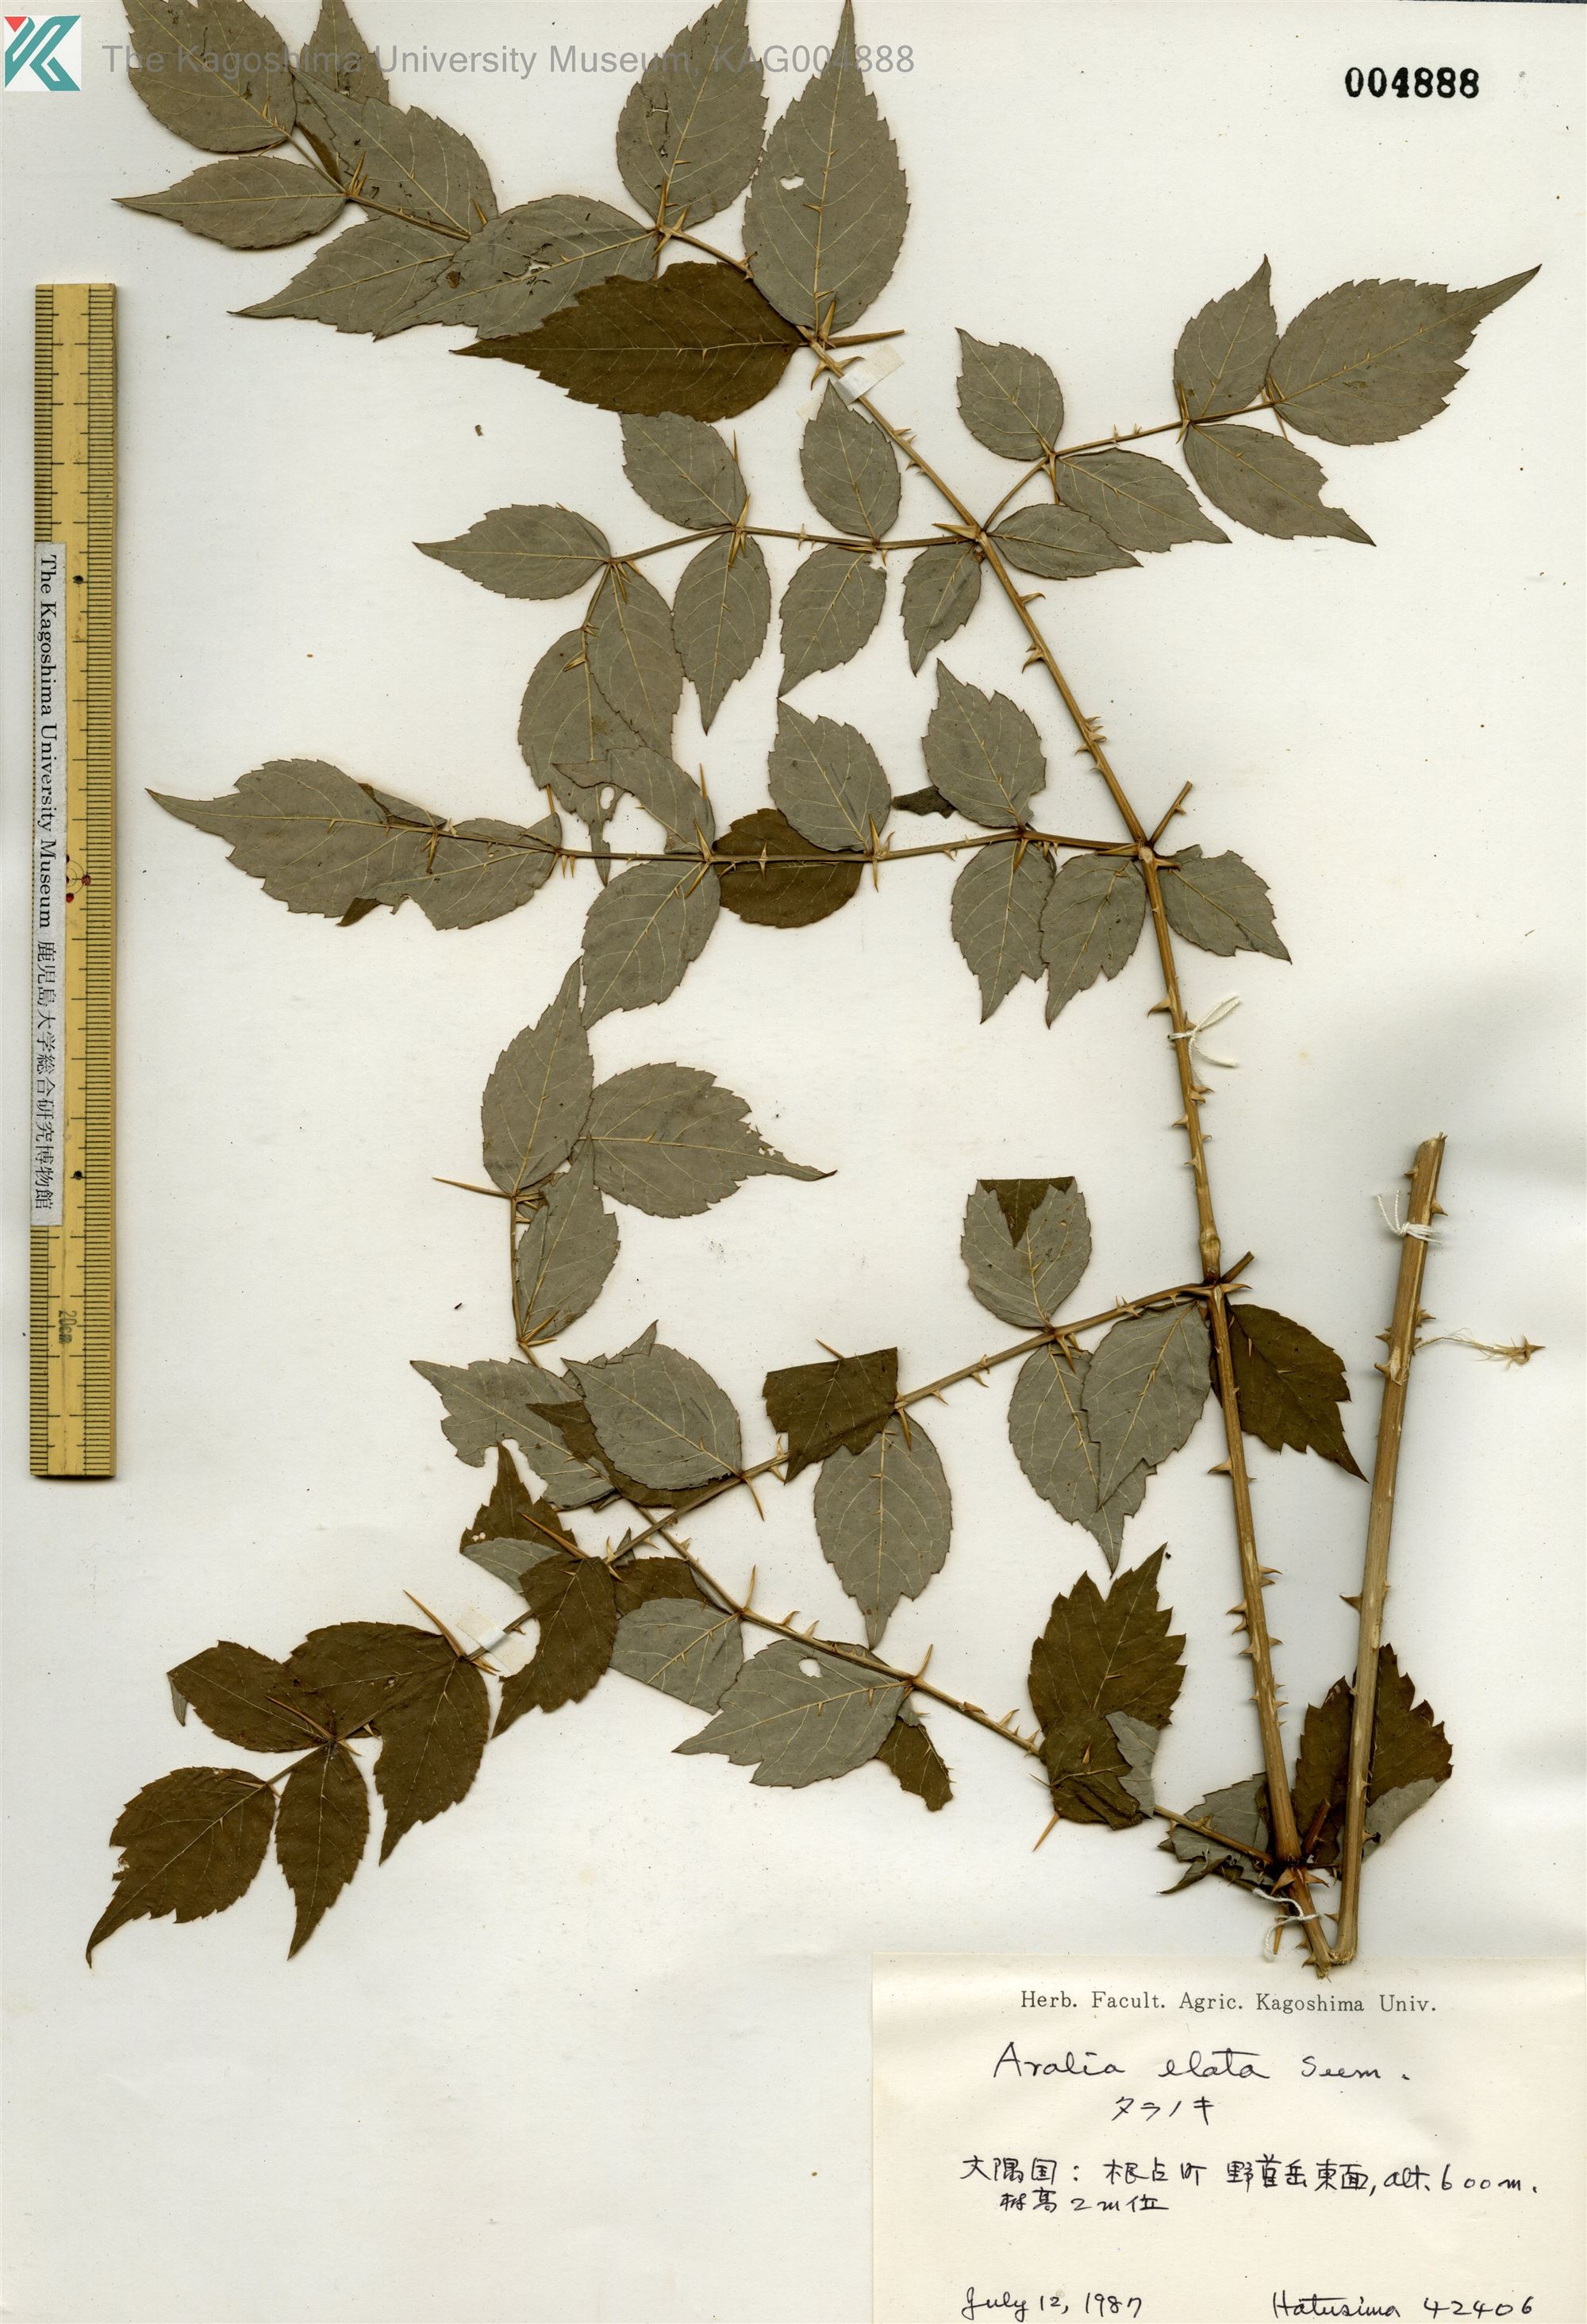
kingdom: Plantae
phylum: Tracheophyta
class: Magnoliopsida
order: Apiales
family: Araliaceae
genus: Aralia
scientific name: Aralia elata
